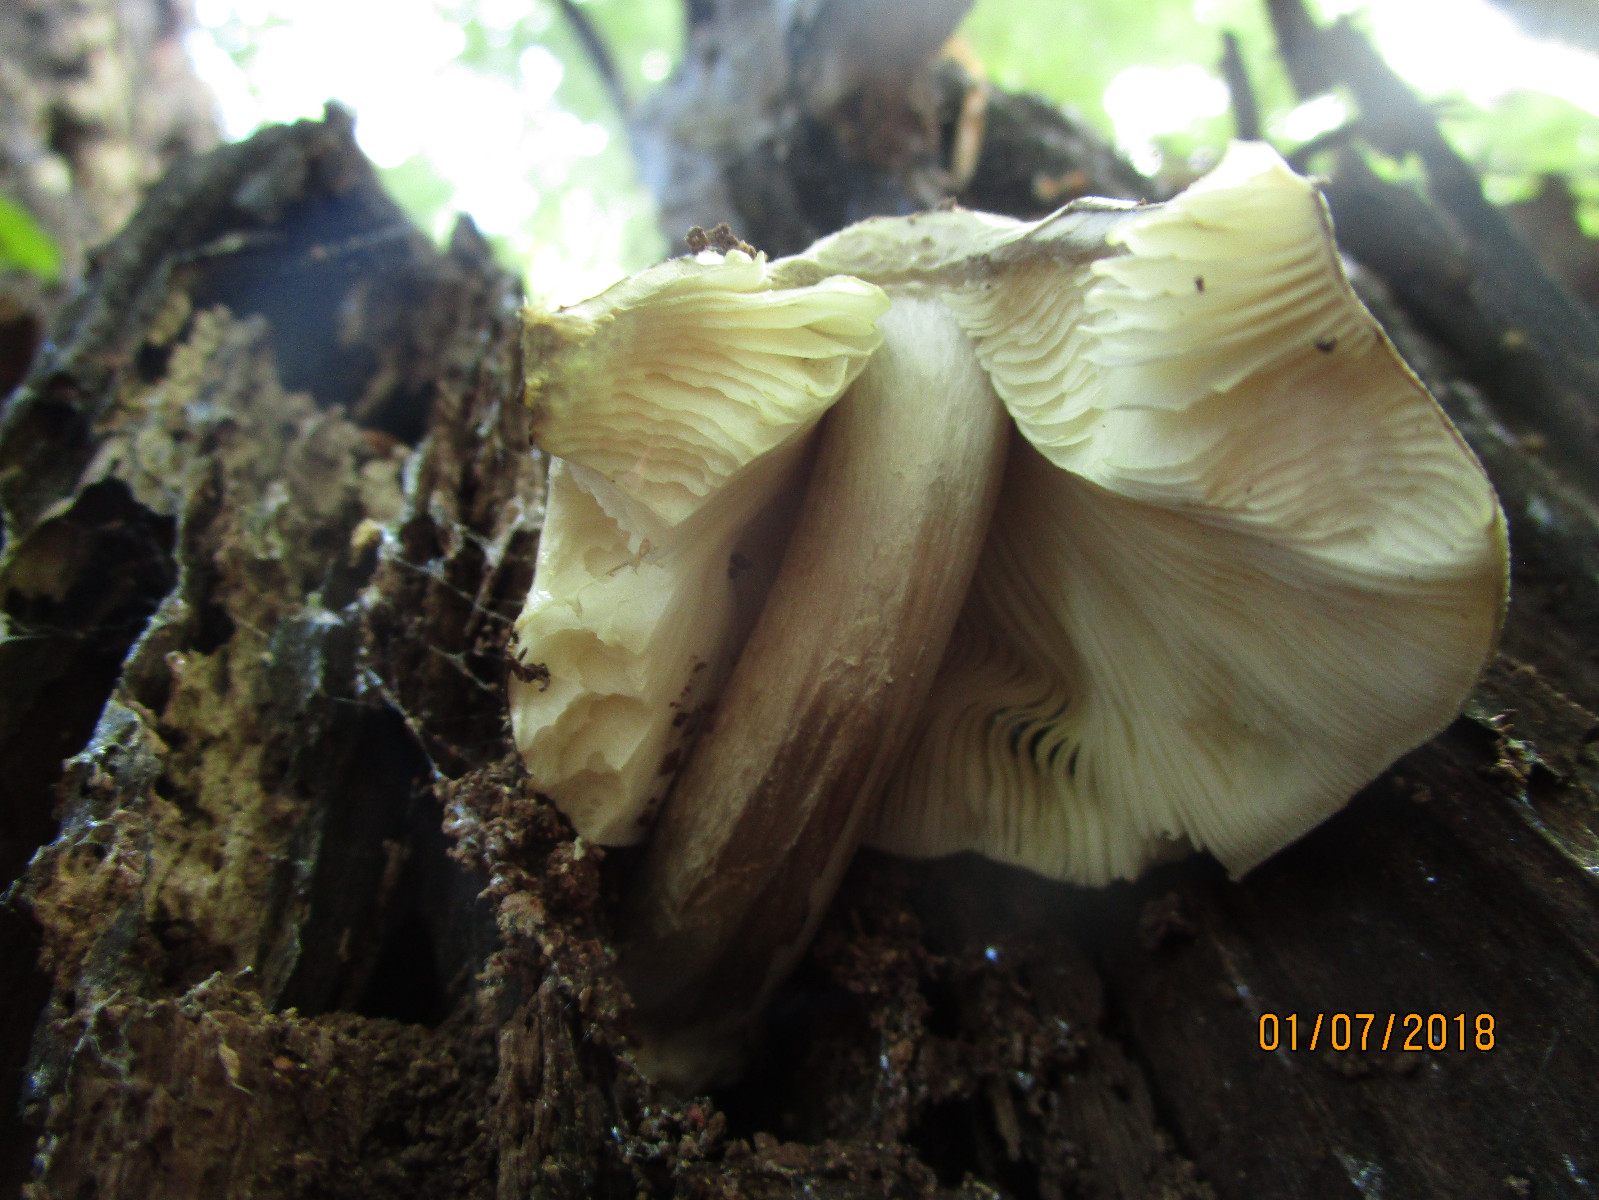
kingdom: Fungi
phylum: Basidiomycota
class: Agaricomycetes
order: Agaricales
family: Pluteaceae
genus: Pluteus
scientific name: Pluteus salicinus
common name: stiv skærmhat
